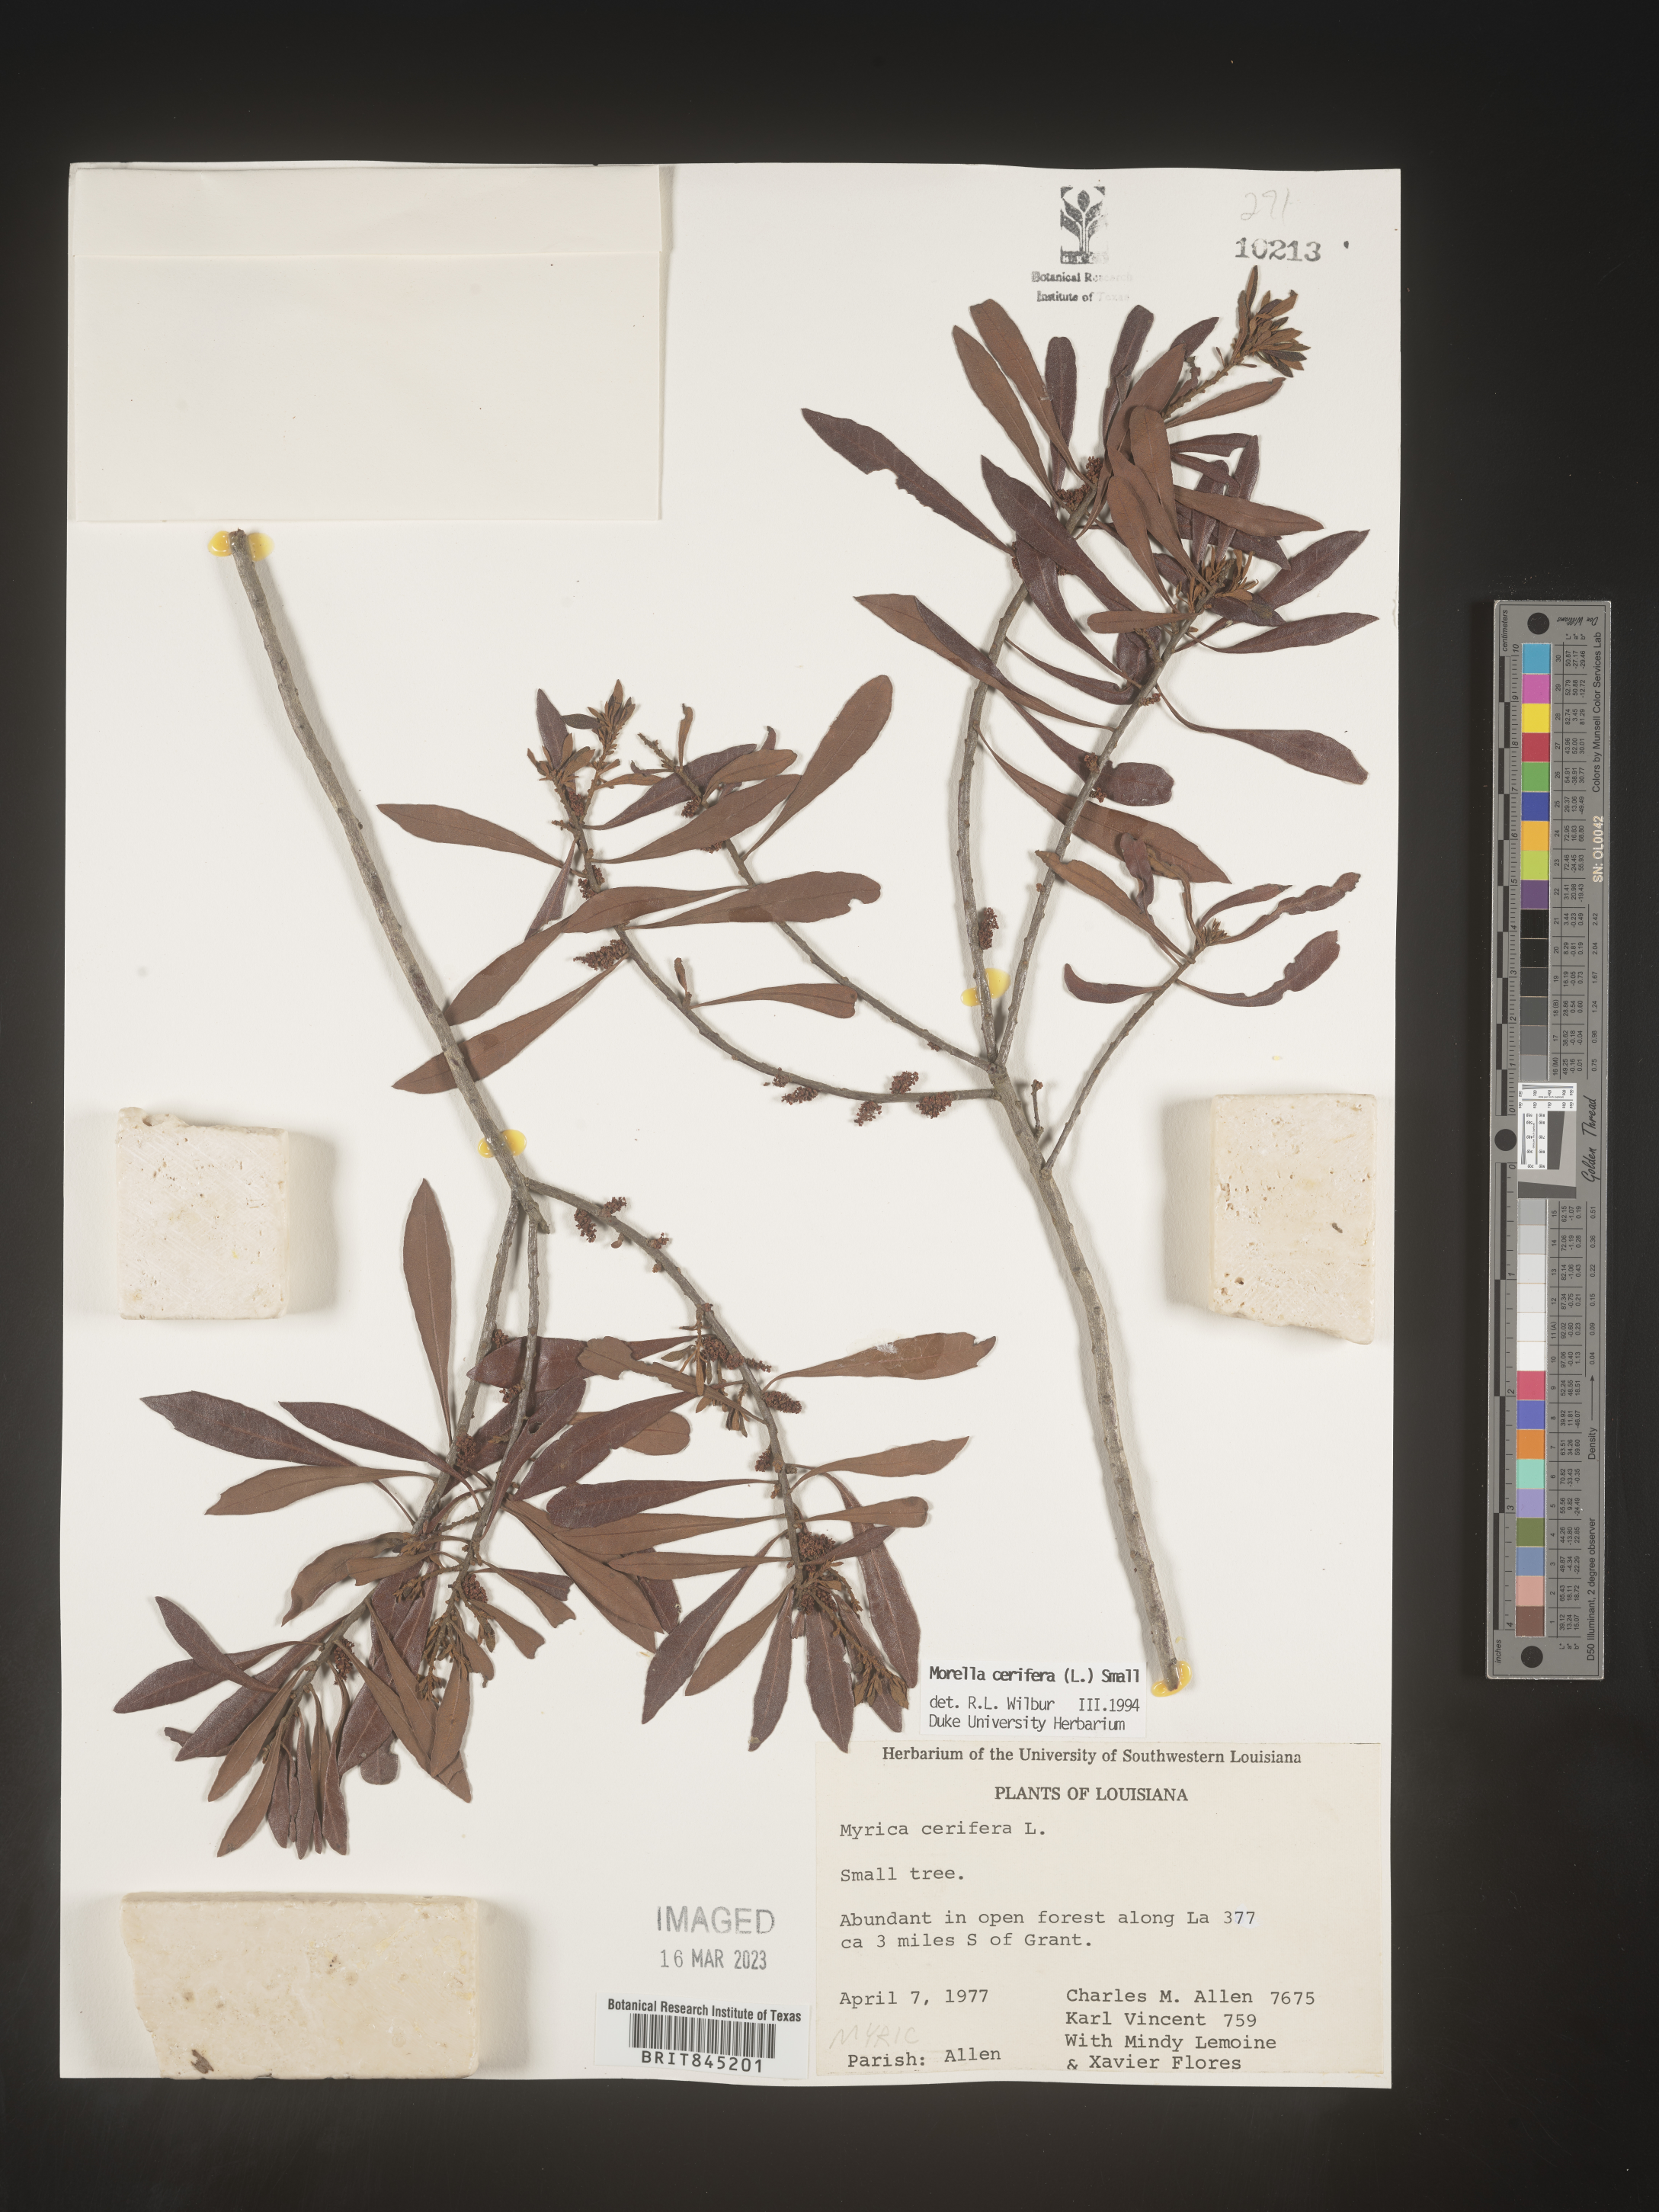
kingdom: Plantae
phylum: Tracheophyta
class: Magnoliopsida
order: Fagales
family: Myricaceae
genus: Morella
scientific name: Morella cerifera
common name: Wax myrtle
